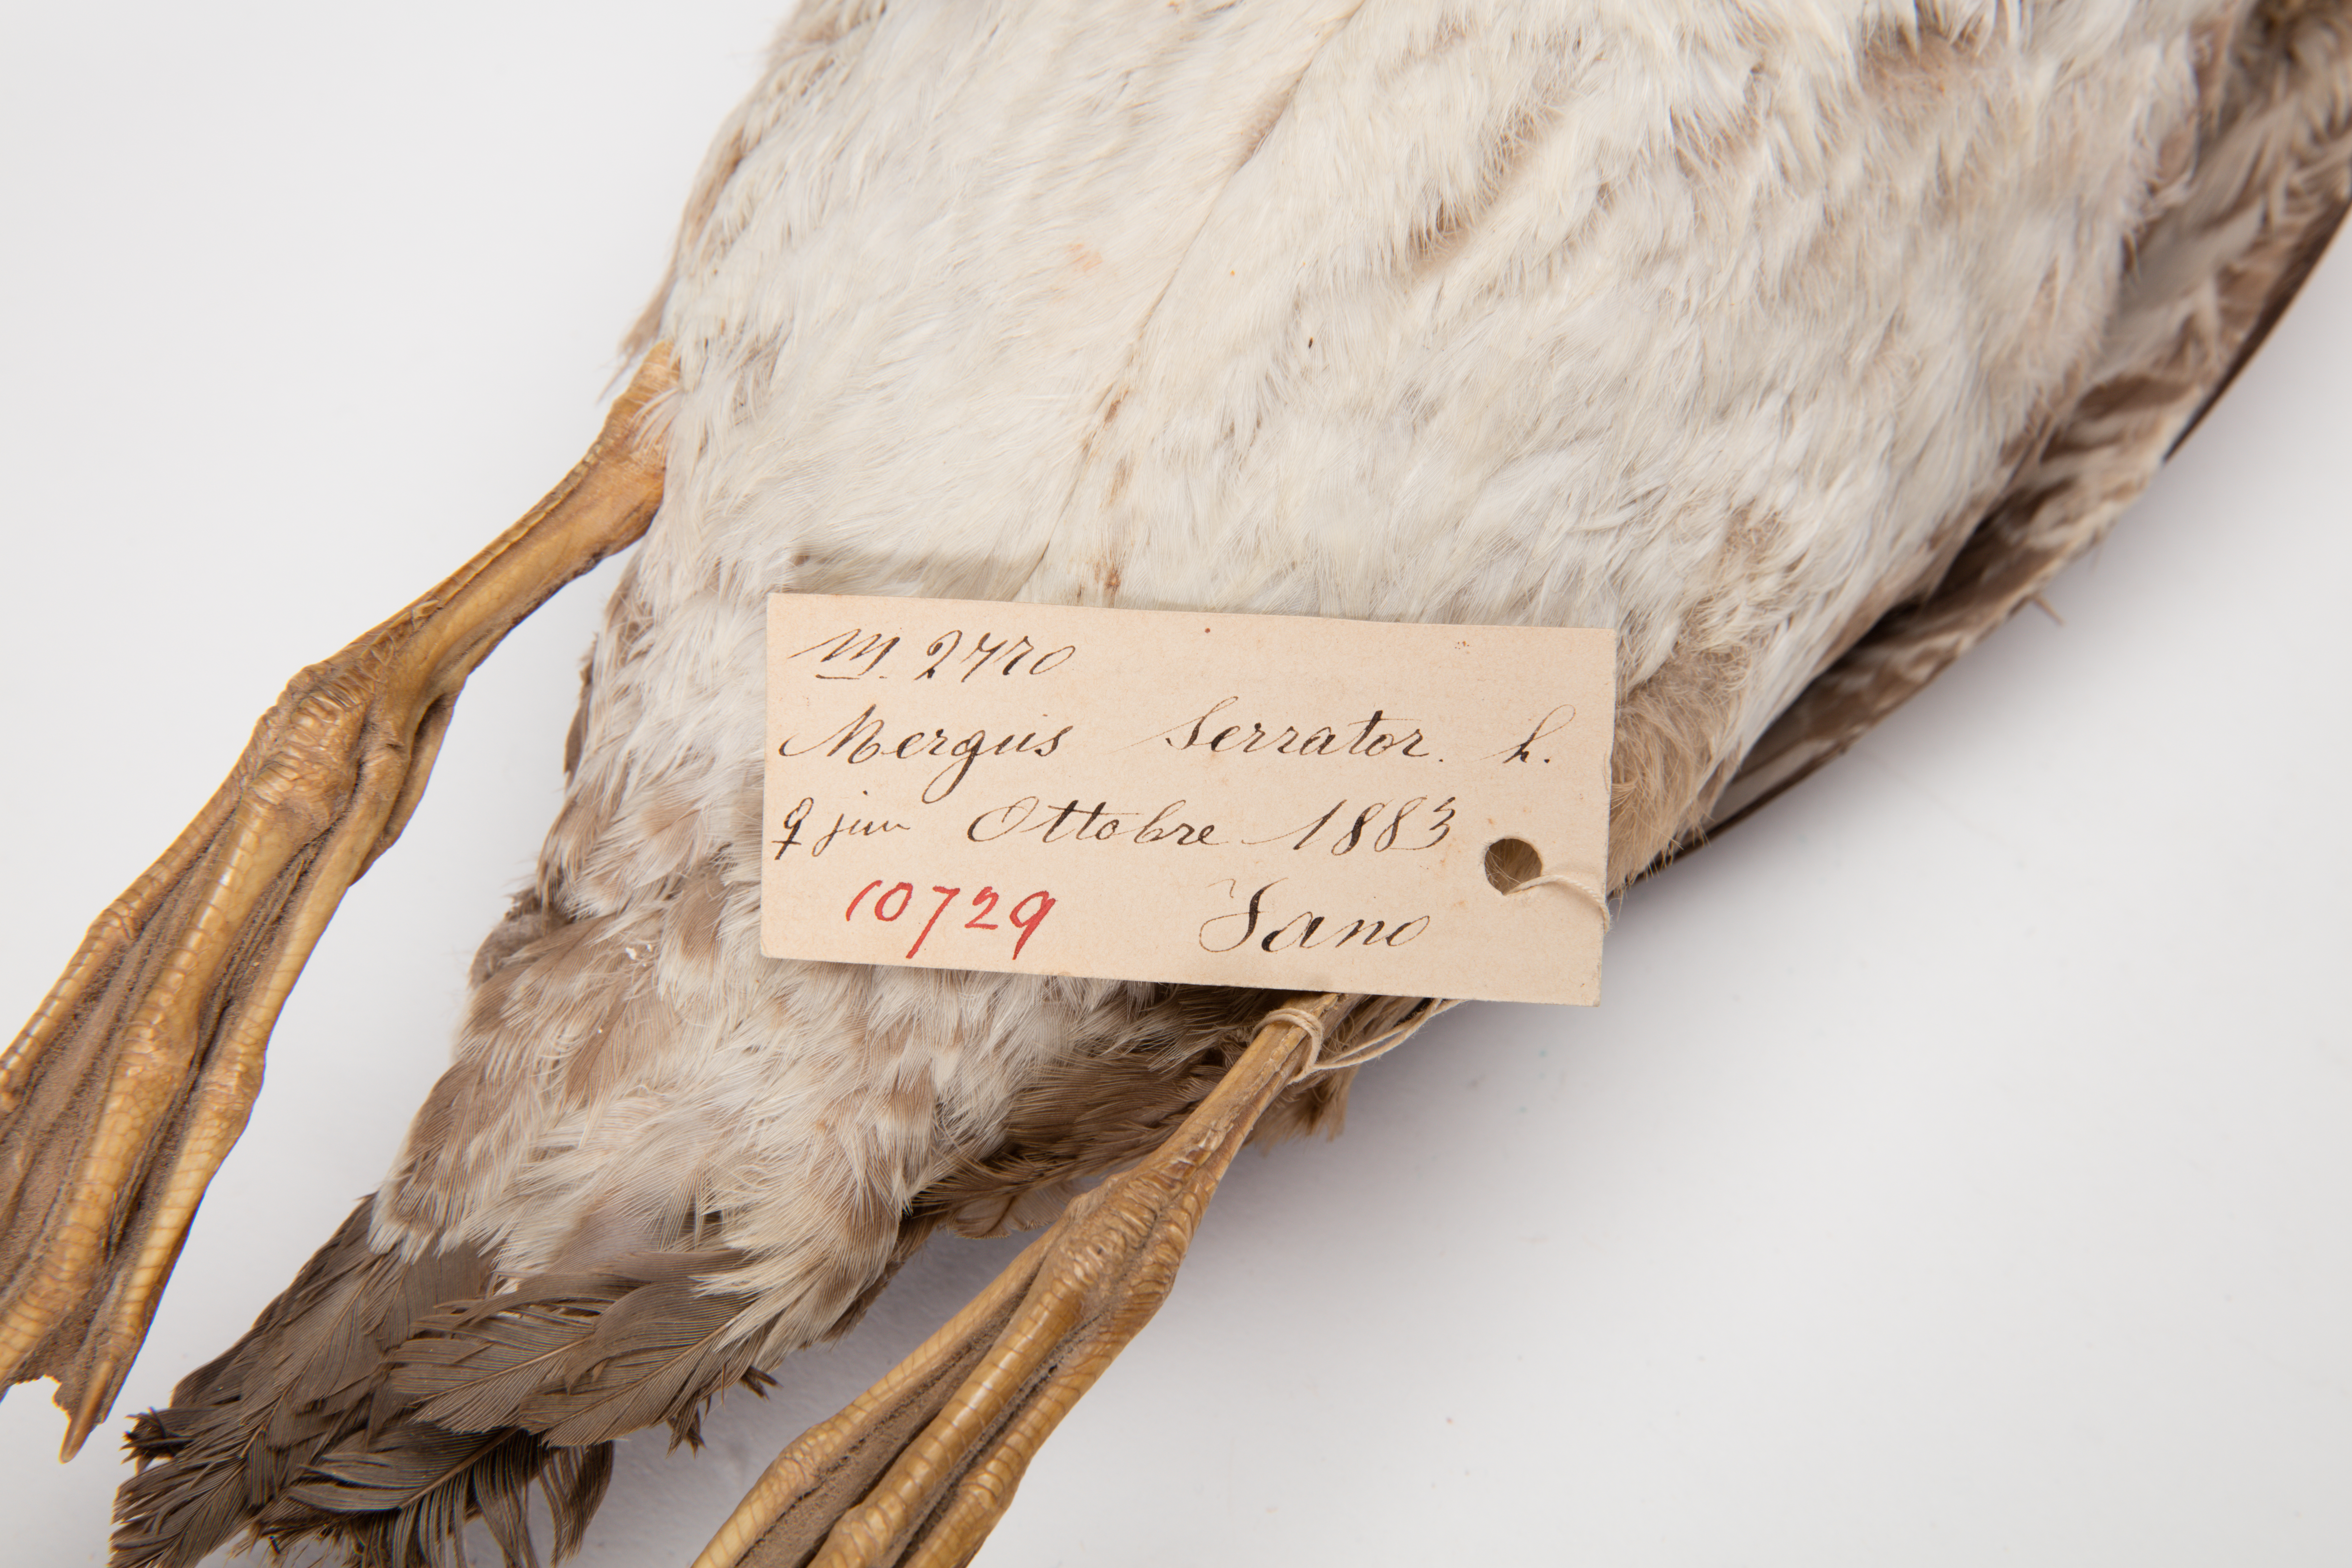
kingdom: Animalia
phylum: Chordata
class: Aves
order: Anseriformes
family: Anatidae
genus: Mergus
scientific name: Mergus serrator
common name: Red-breasted merganser
